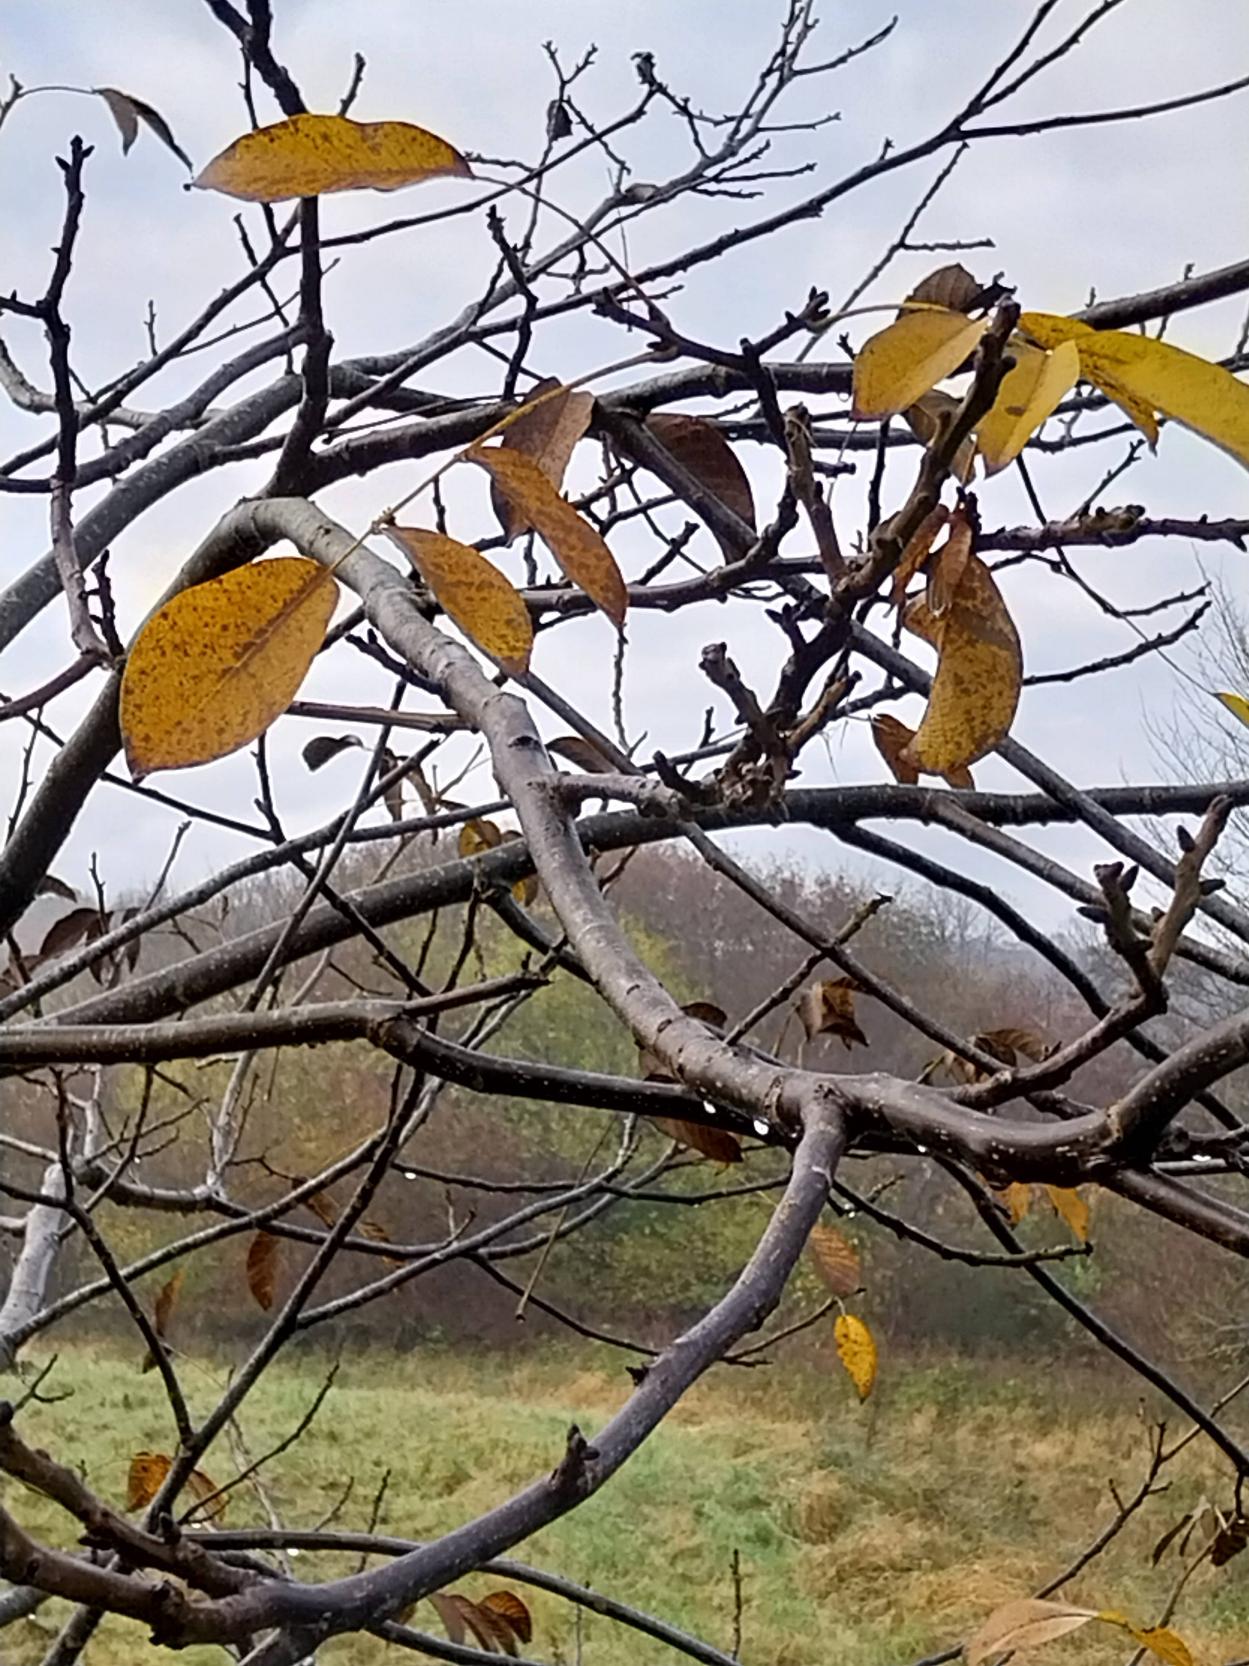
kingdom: Plantae
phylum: Tracheophyta
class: Magnoliopsida
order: Fagales
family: Juglandaceae
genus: Juglans
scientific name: Juglans regia
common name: Almindelig valnød
